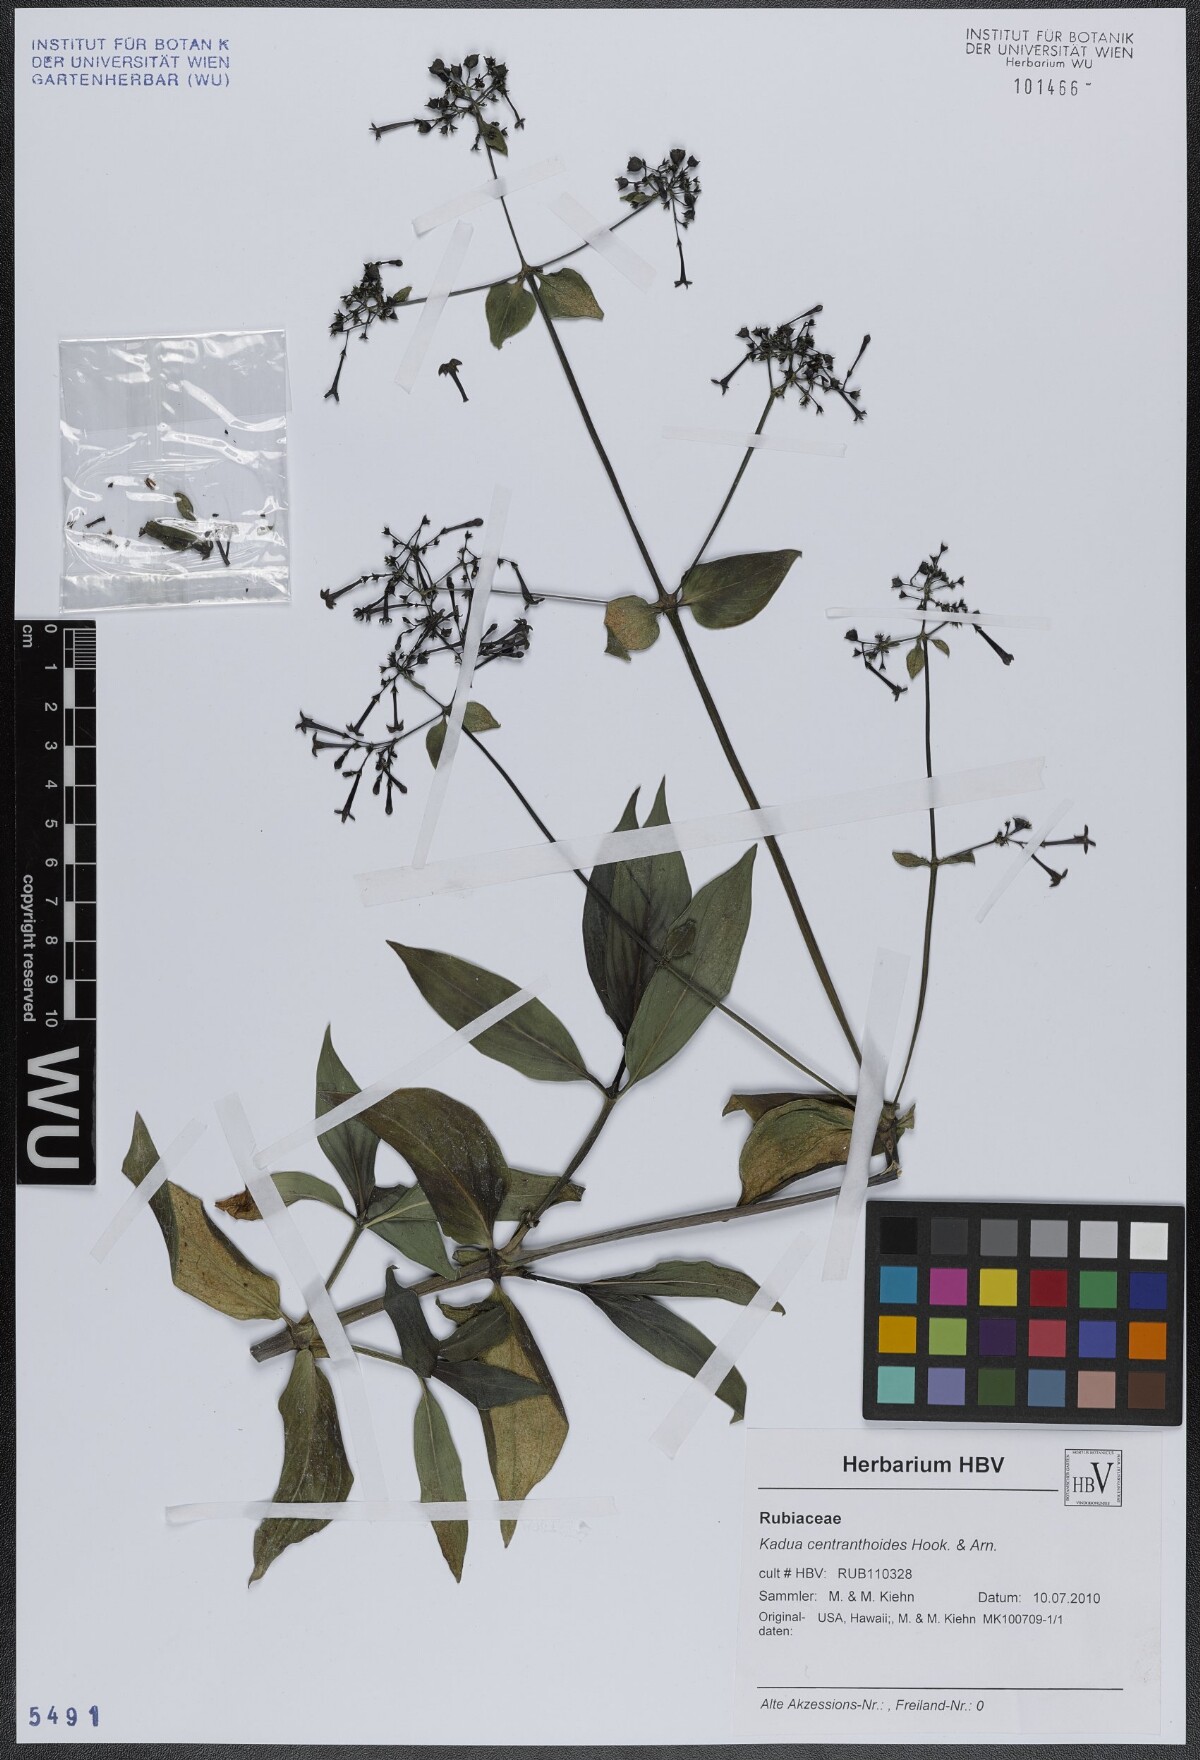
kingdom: Plantae
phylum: Tracheophyta
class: Magnoliopsida
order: Gentianales
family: Rubiaceae
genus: Kadua
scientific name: Kadua centranthoides
